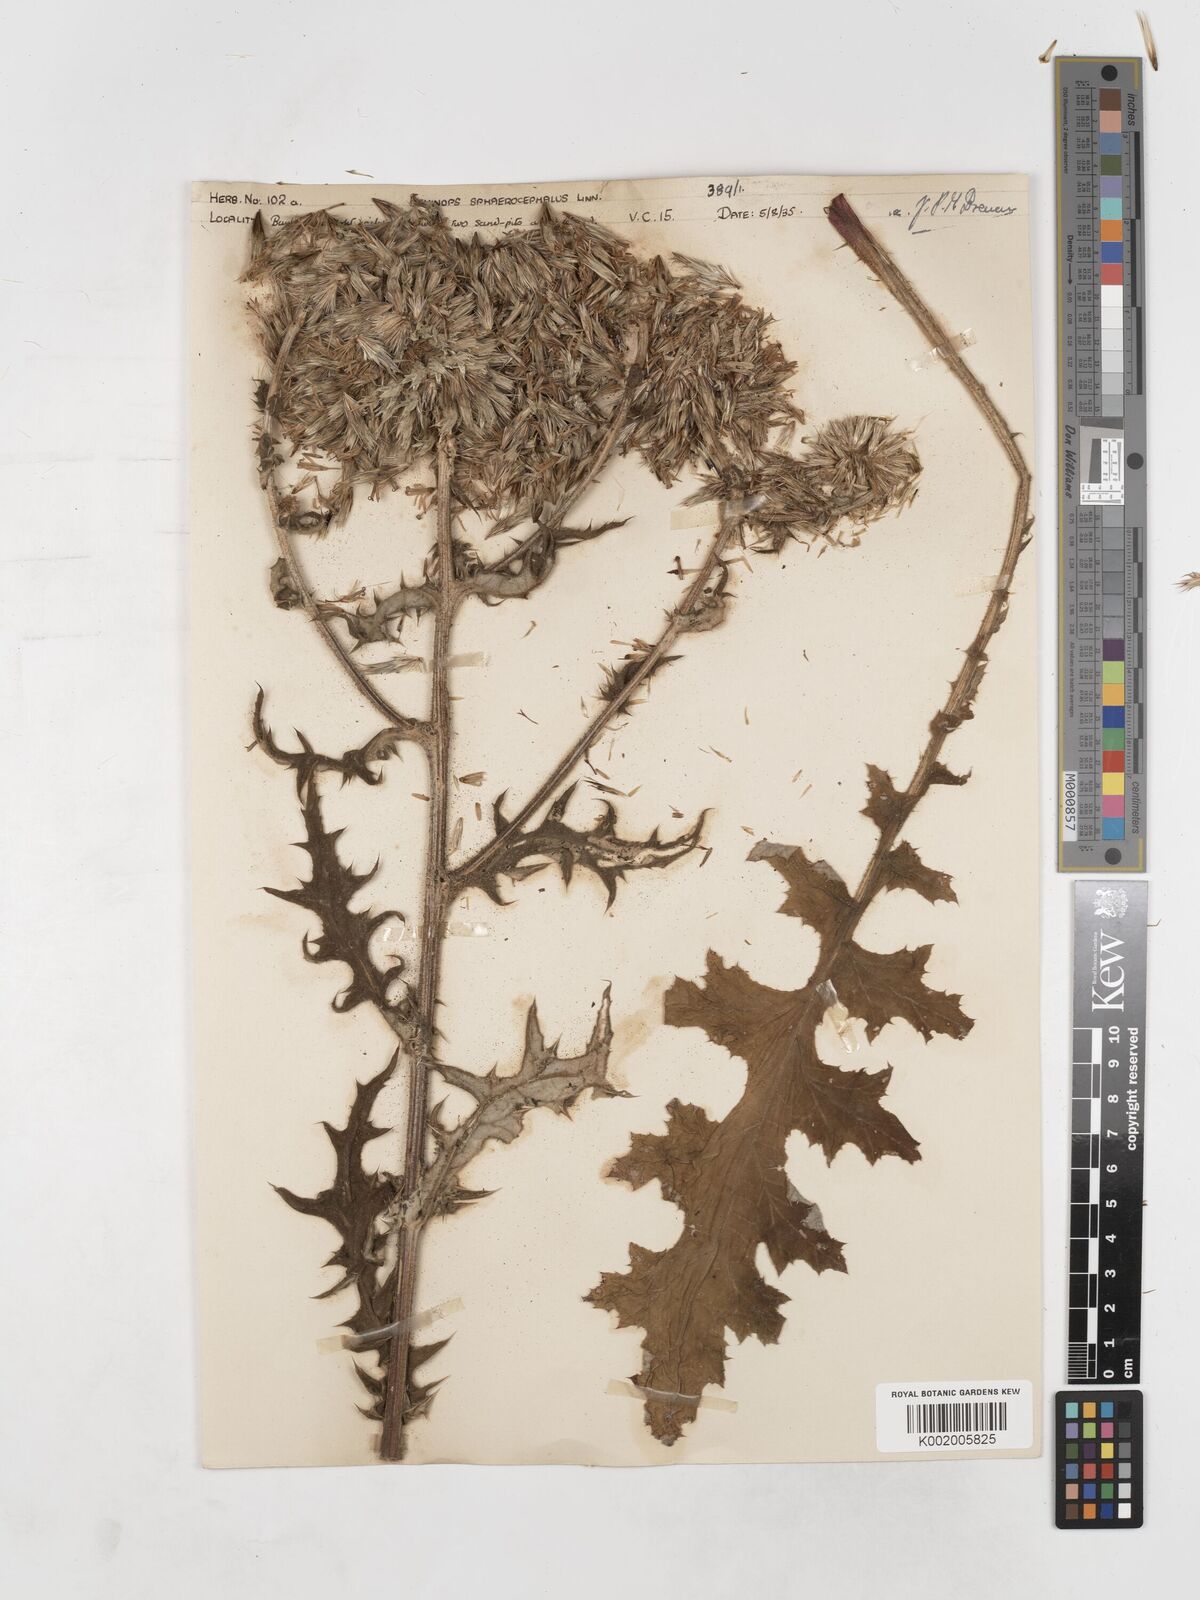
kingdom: Plantae
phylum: Tracheophyta
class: Magnoliopsida
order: Asterales
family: Asteraceae
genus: Echinops
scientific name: Echinops sphaerocephalus
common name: Glandular globe-thistle
